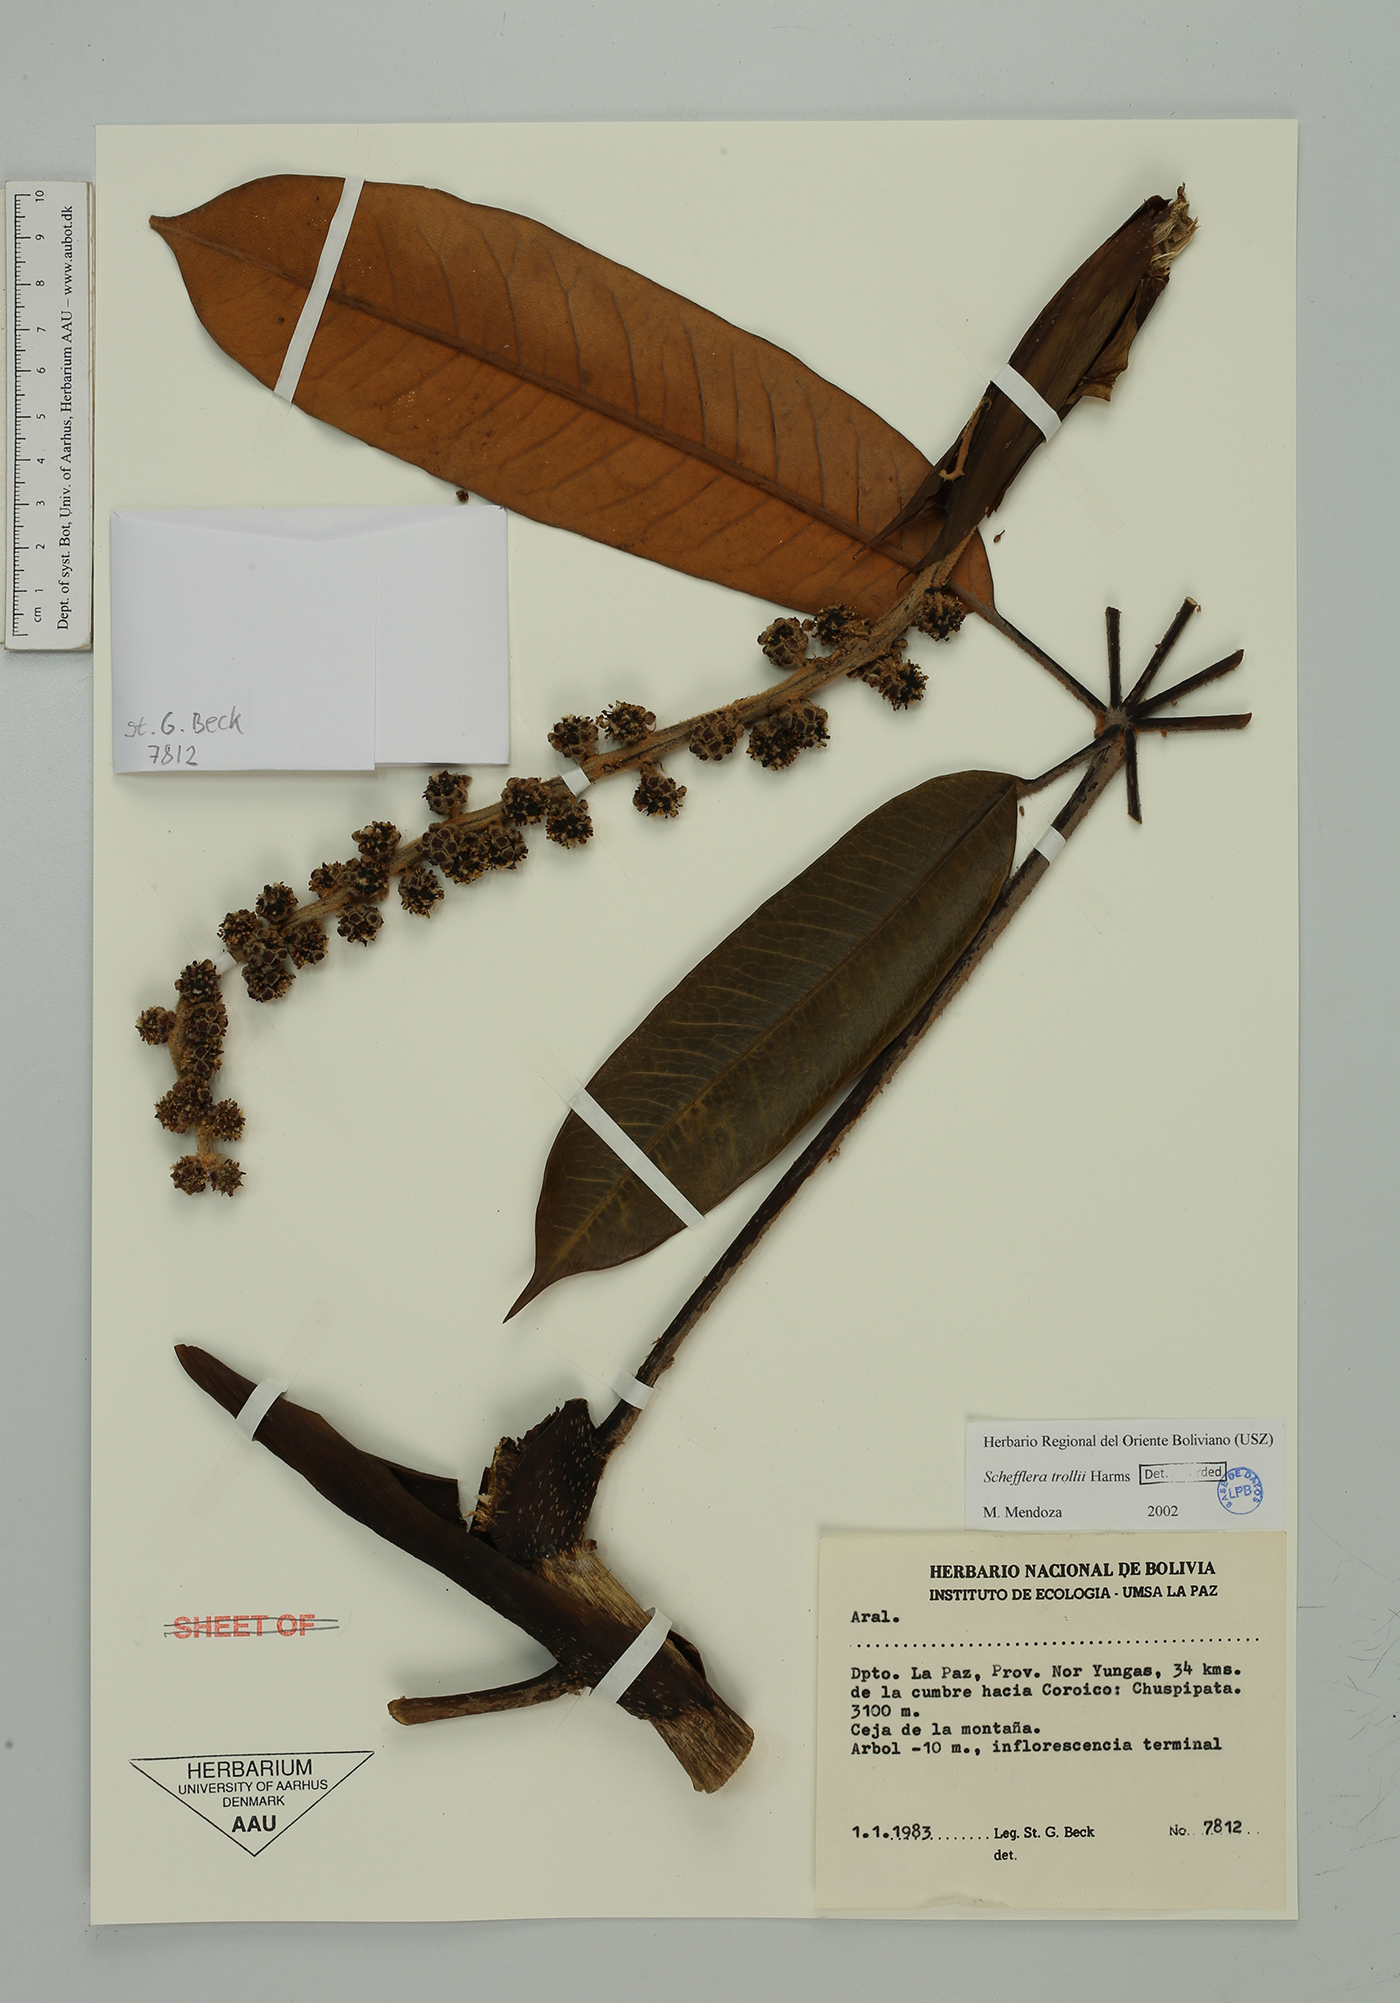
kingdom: Plantae
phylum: Tracheophyta
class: Magnoliopsida
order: Apiales
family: Araliaceae
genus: Sciodaphyllum
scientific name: Sciodaphyllum trollii
